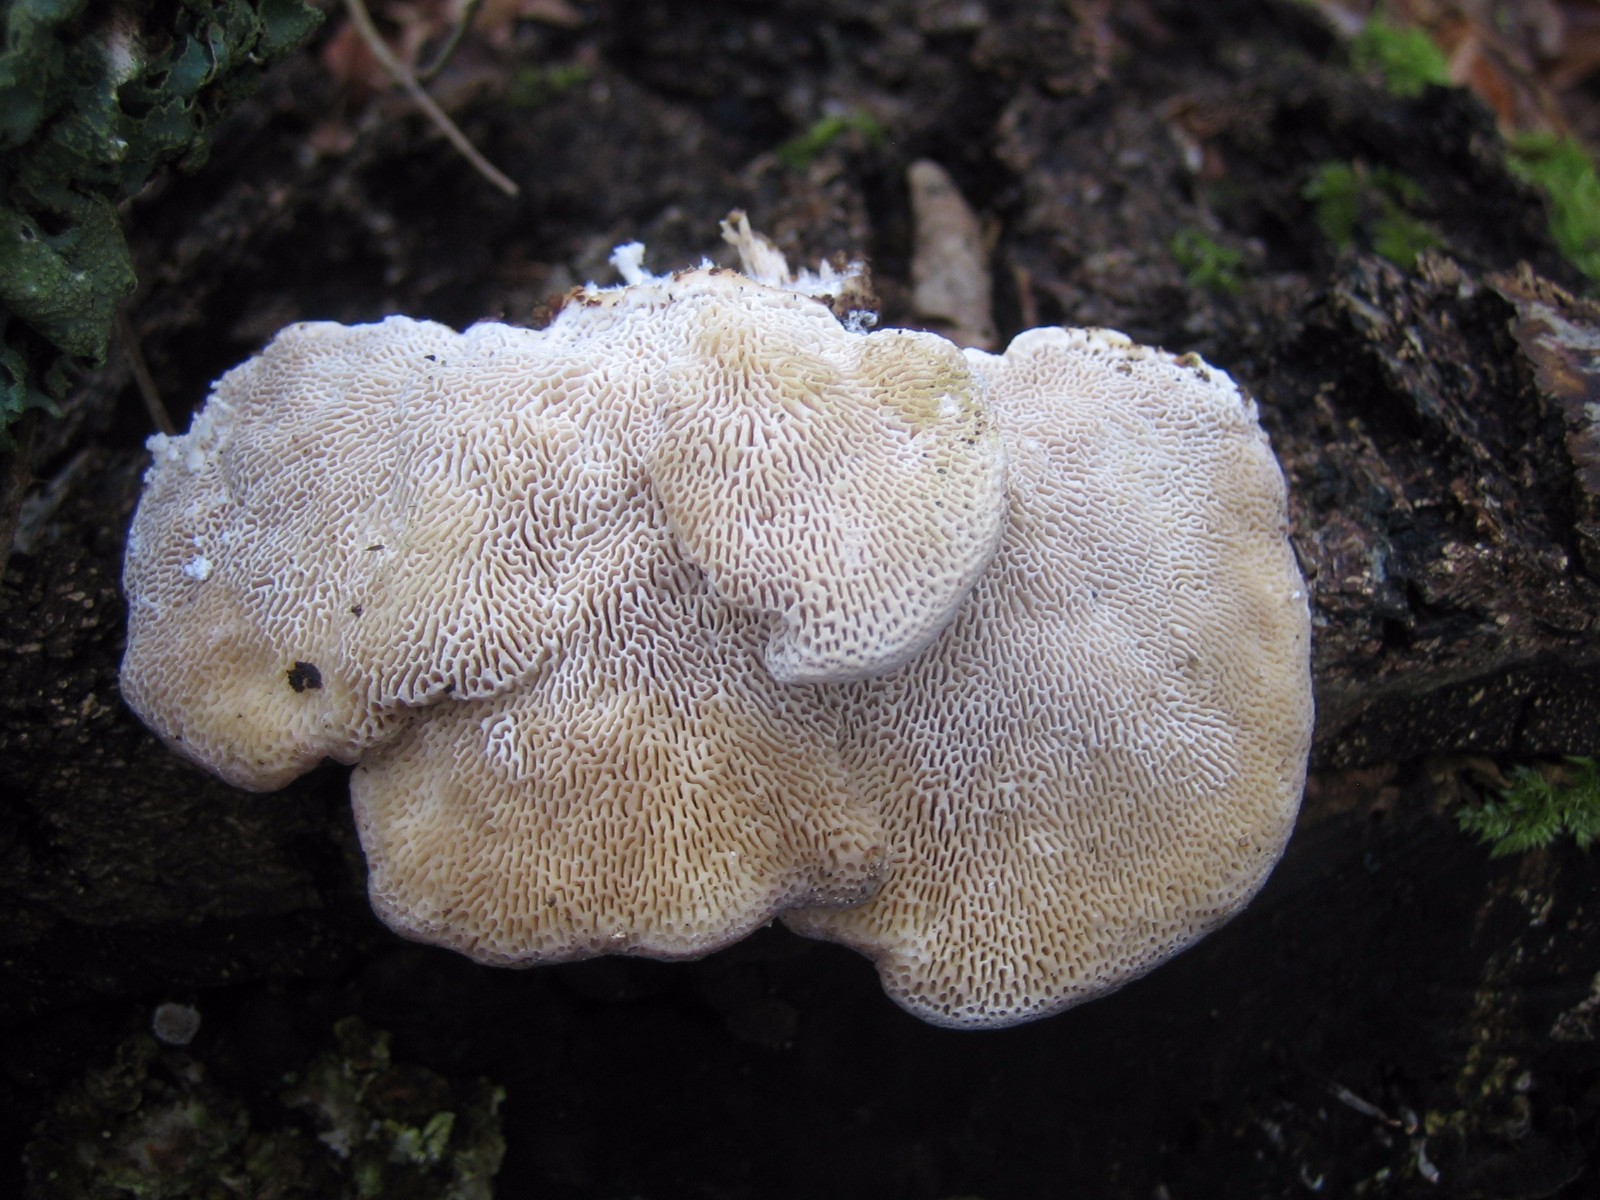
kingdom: Fungi
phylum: Basidiomycota
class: Agaricomycetes
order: Polyporales
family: Polyporaceae
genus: Trametes
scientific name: Trametes gibbosa
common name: puklet læderporesvamp
